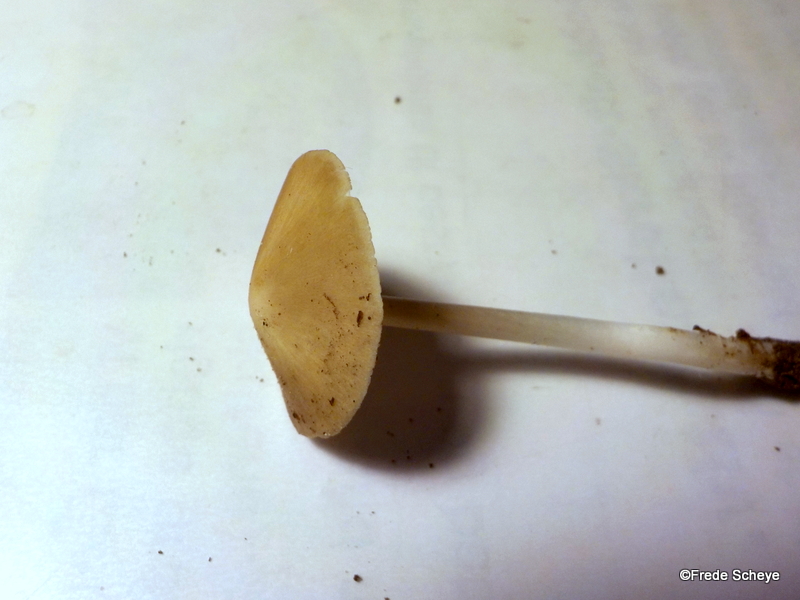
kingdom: Fungi
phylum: Basidiomycota
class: Agaricomycetes
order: Agaricales
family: Porotheleaceae
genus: Hydropodia
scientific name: Hydropodia subalpina
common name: vår-fnugfod
